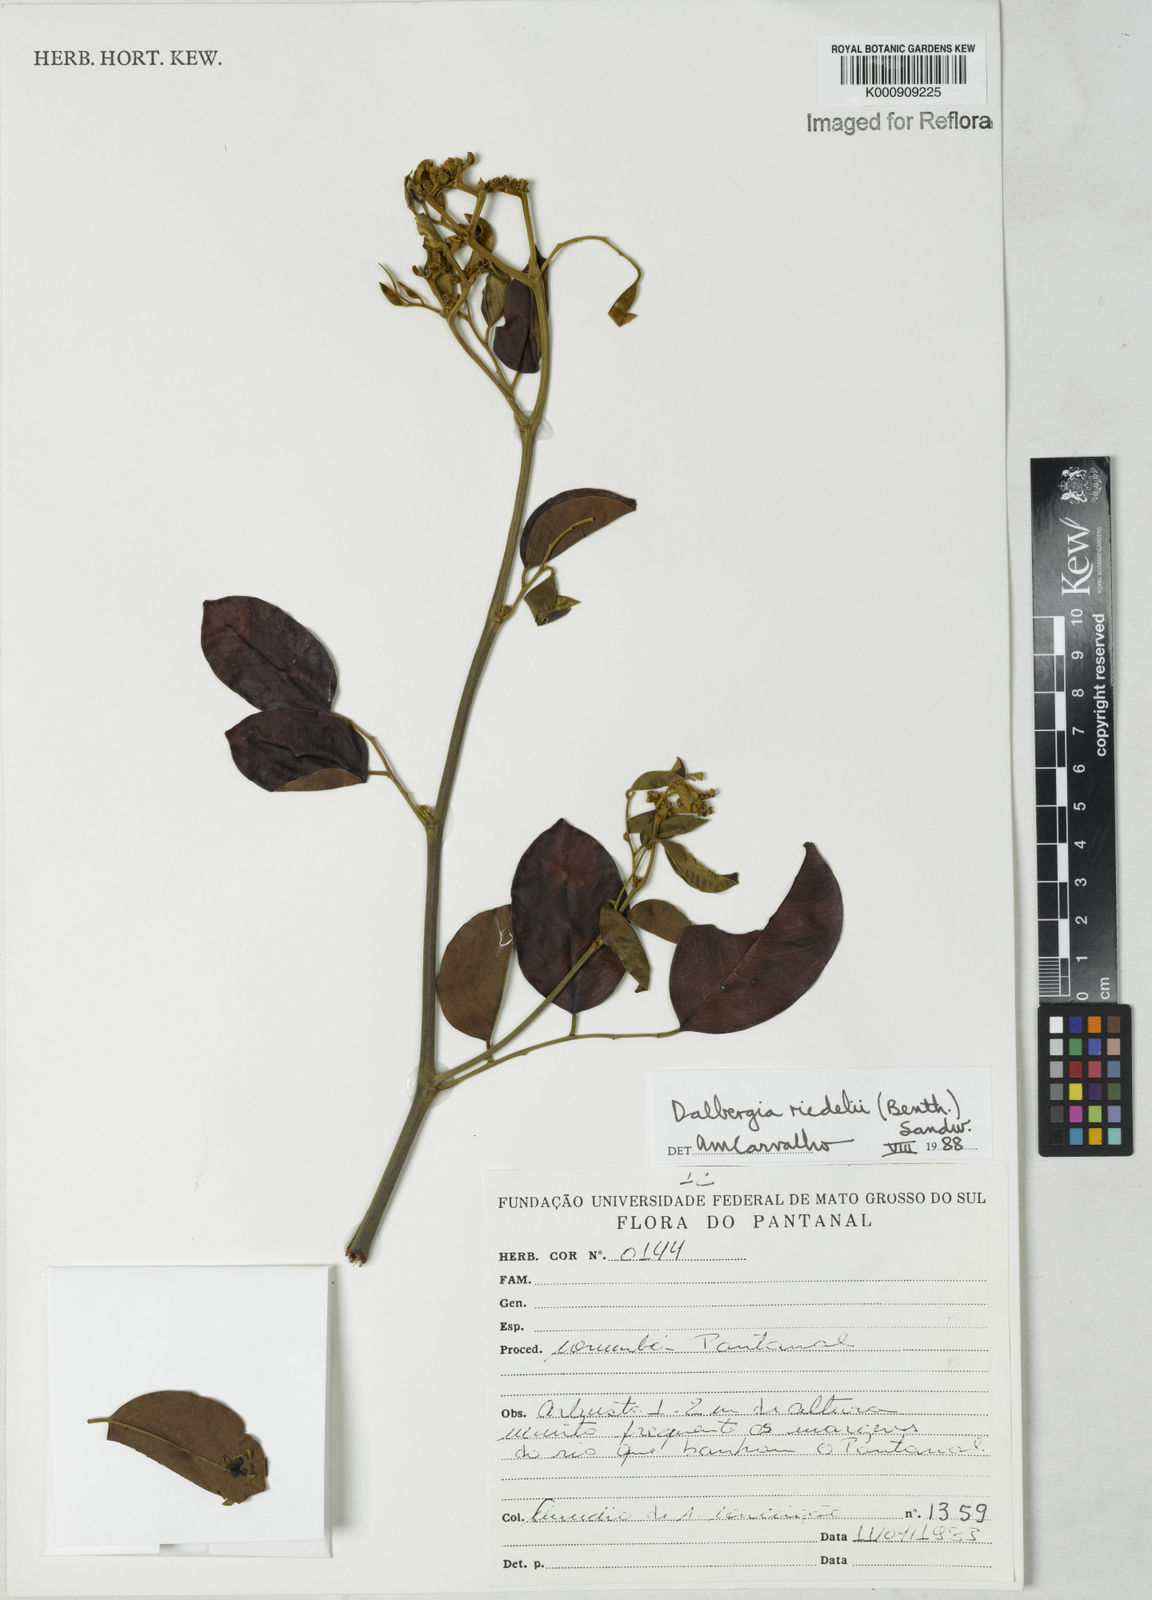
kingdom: Plantae
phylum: Tracheophyta
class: Magnoliopsida
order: Fabales
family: Fabaceae
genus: Dalbergia
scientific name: Dalbergia riedelii
